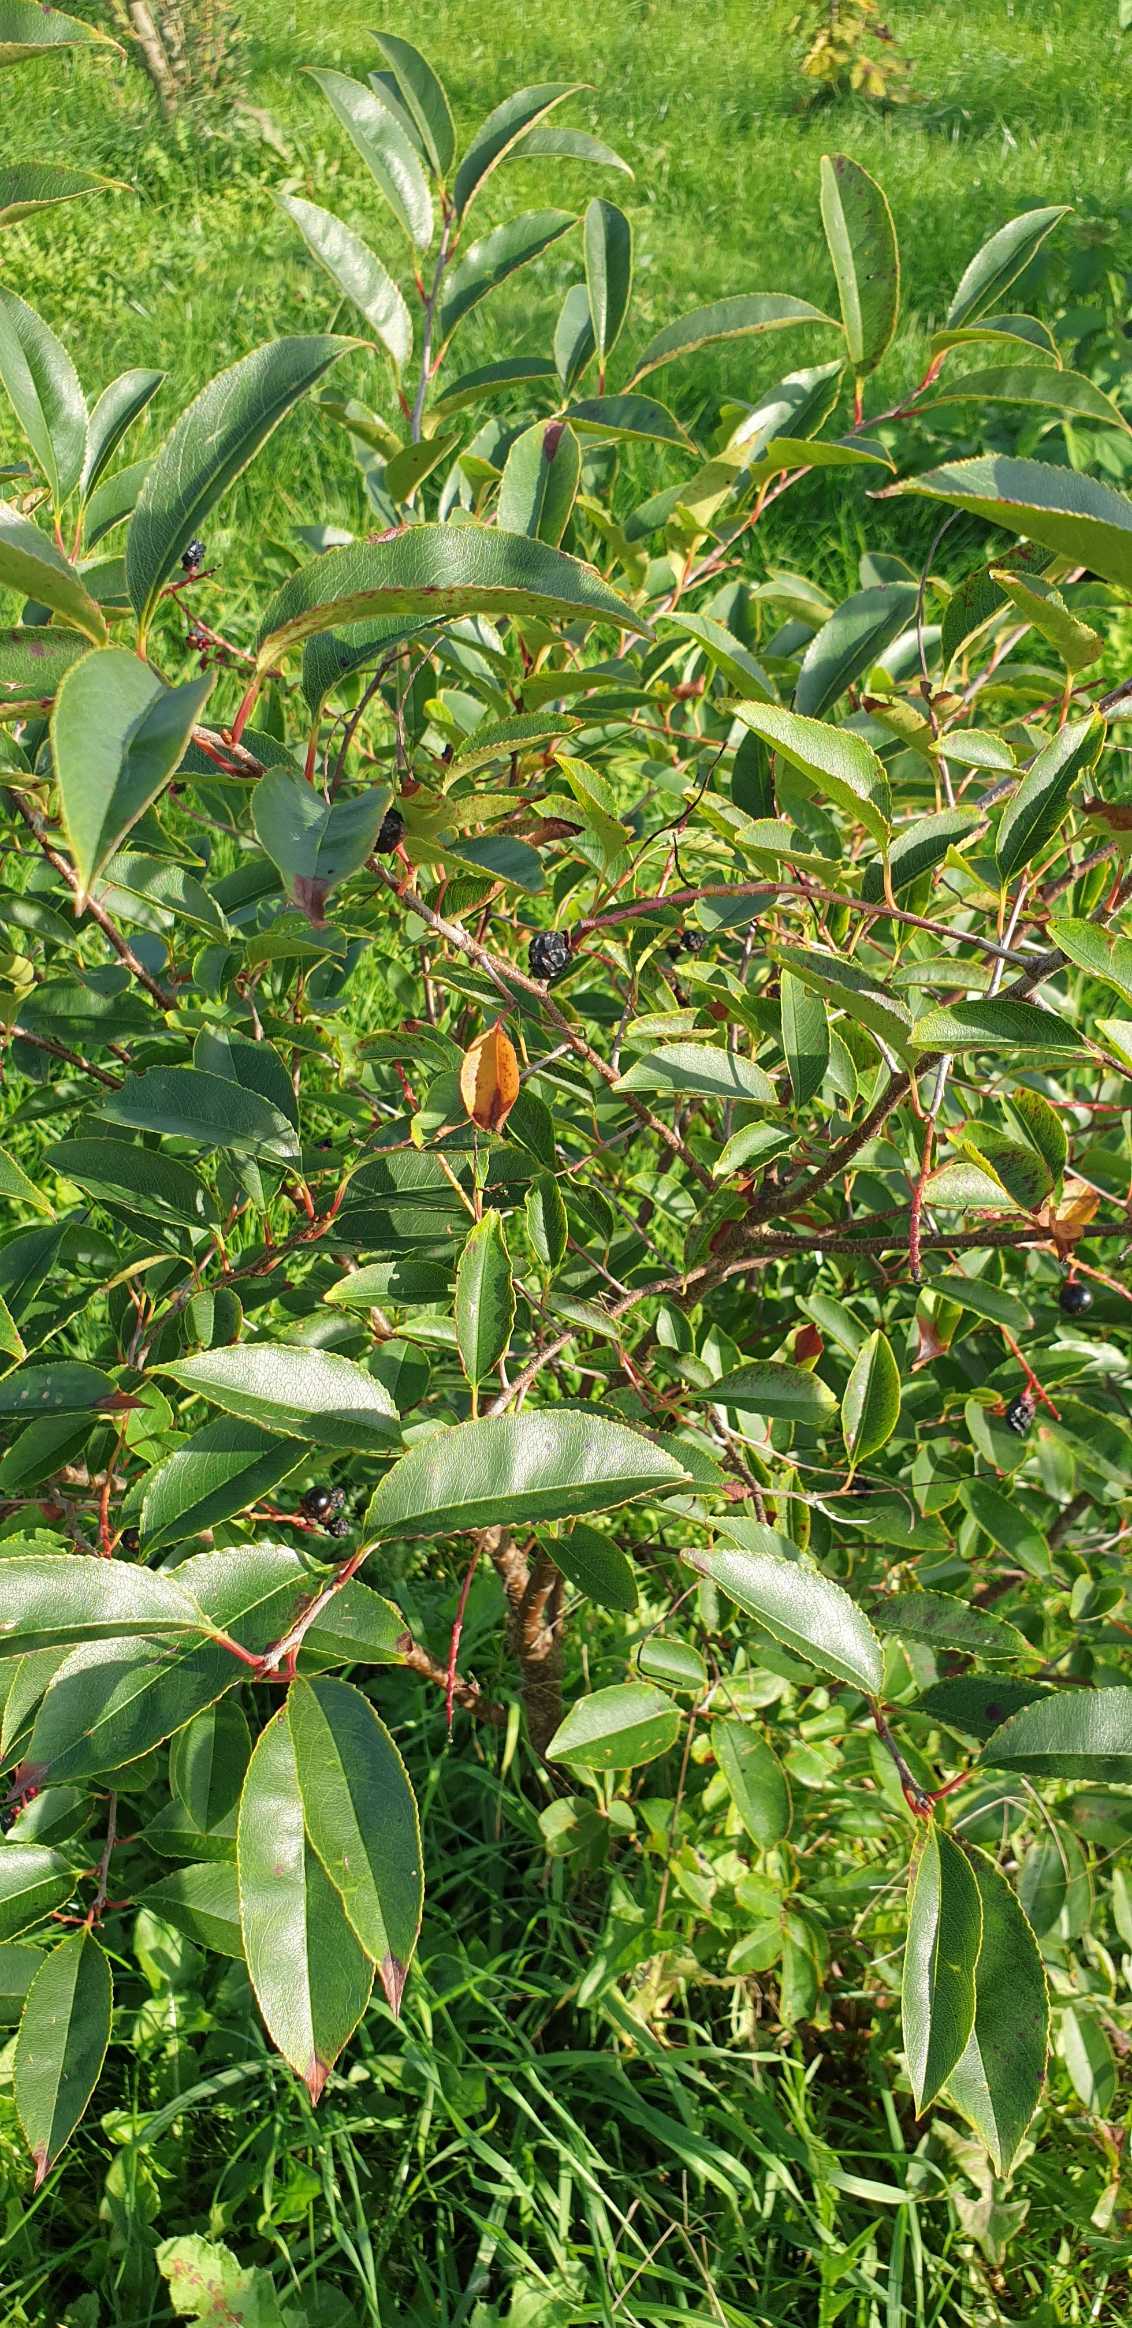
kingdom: Plantae
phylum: Tracheophyta
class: Magnoliopsida
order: Rosales
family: Rosaceae
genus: Prunus
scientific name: Prunus serotina
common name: Glansbladet hæg
